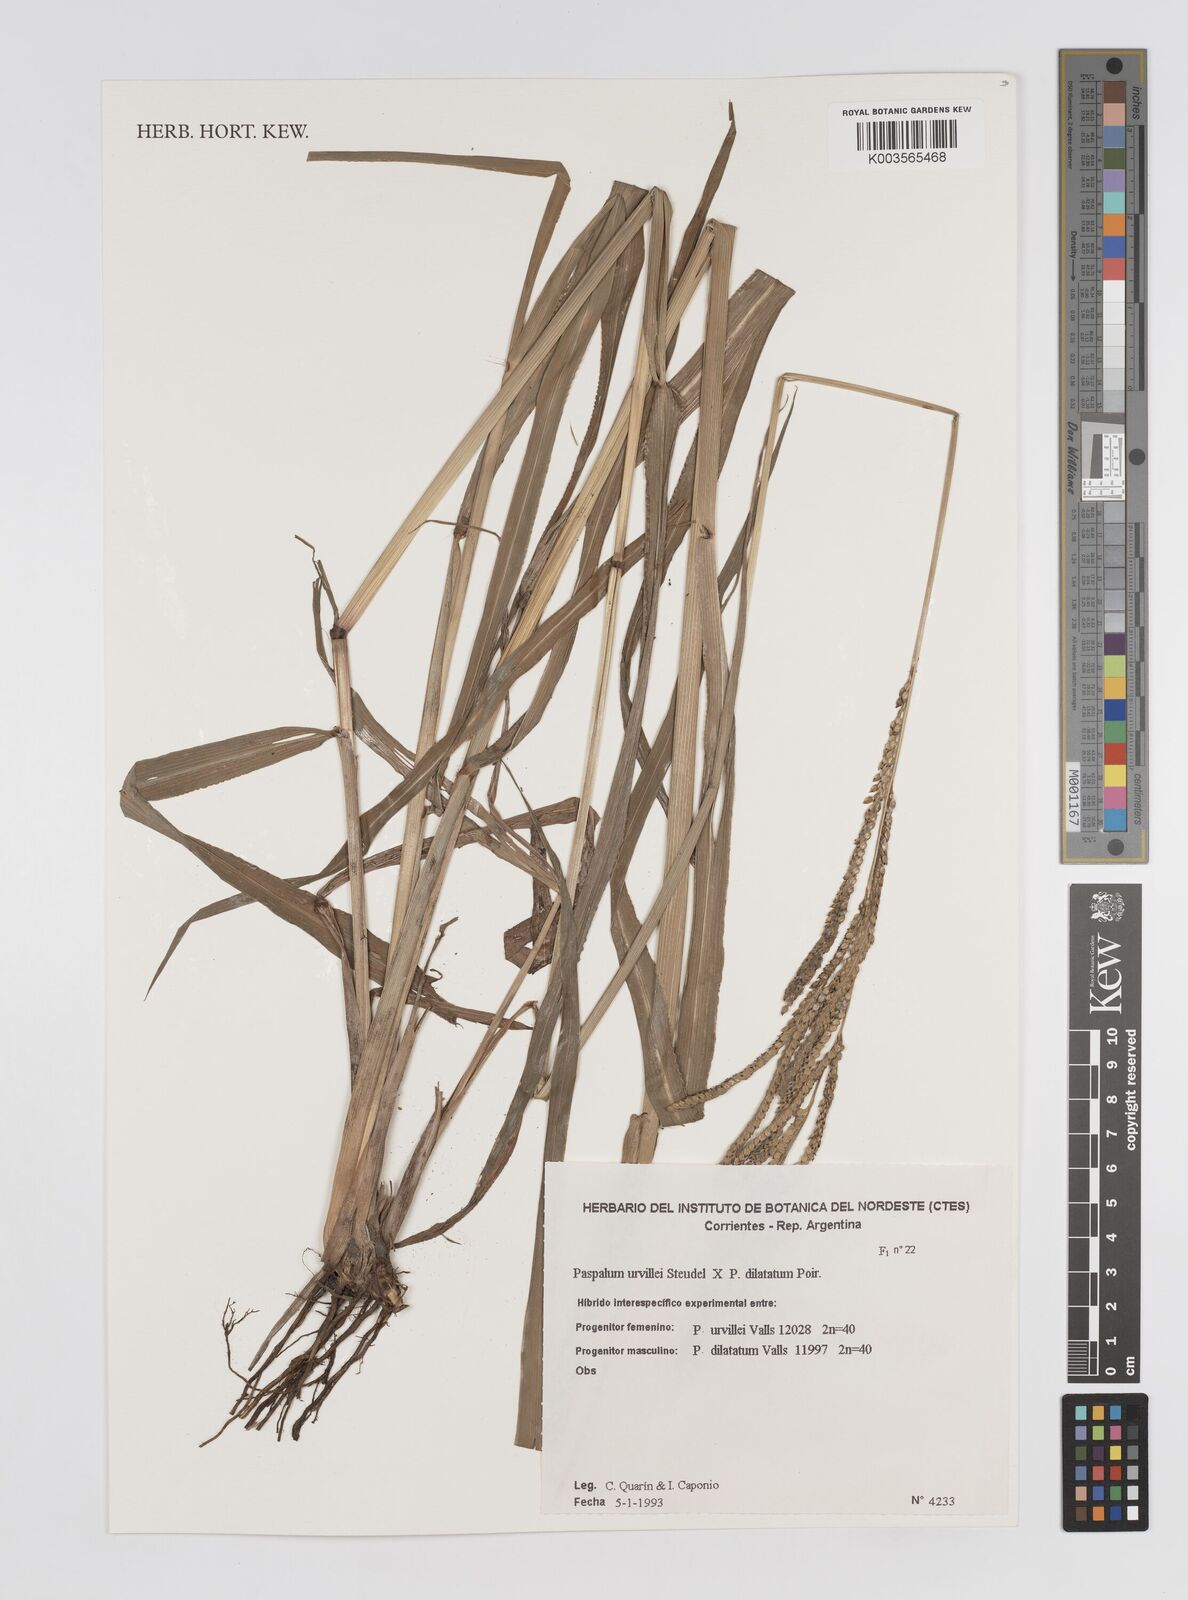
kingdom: Plantae
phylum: Tracheophyta
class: Liliopsida
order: Poales
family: Poaceae
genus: Paspalum
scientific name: Paspalum dilatatum
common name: Dallisgrass
